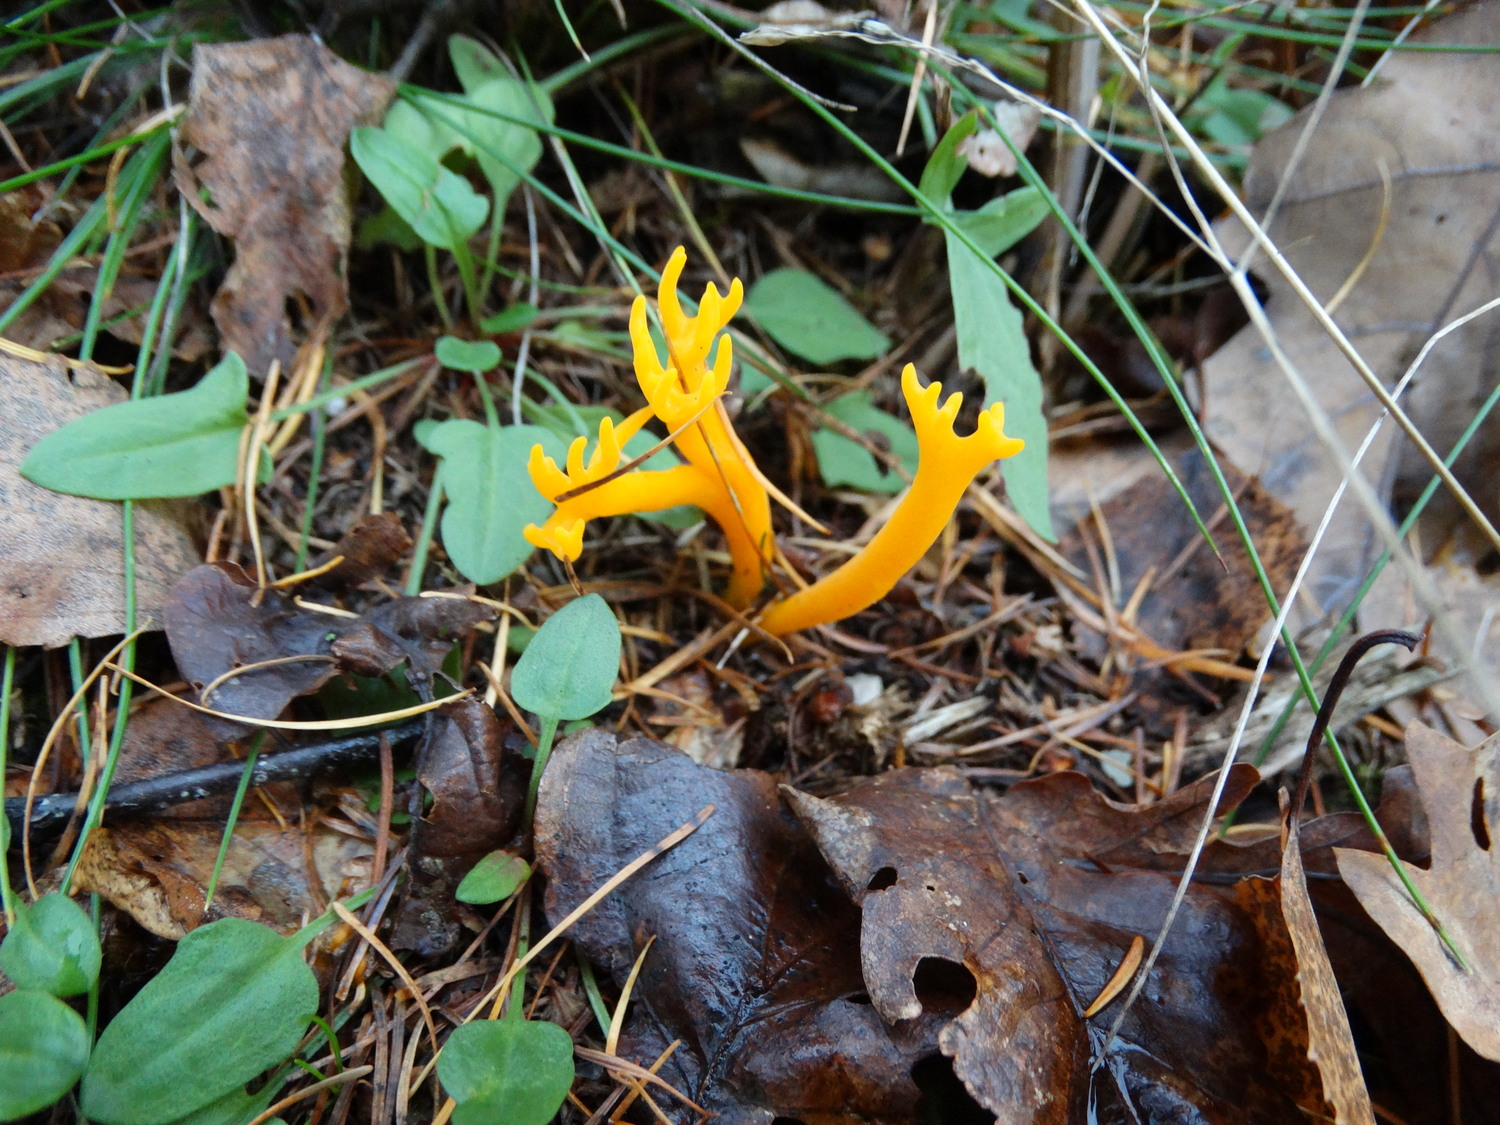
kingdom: Fungi
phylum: Basidiomycota
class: Dacrymycetes
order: Dacrymycetales
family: Dacrymycetaceae
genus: Calocera
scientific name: Calocera viscosa
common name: almindelig guldgaffel
